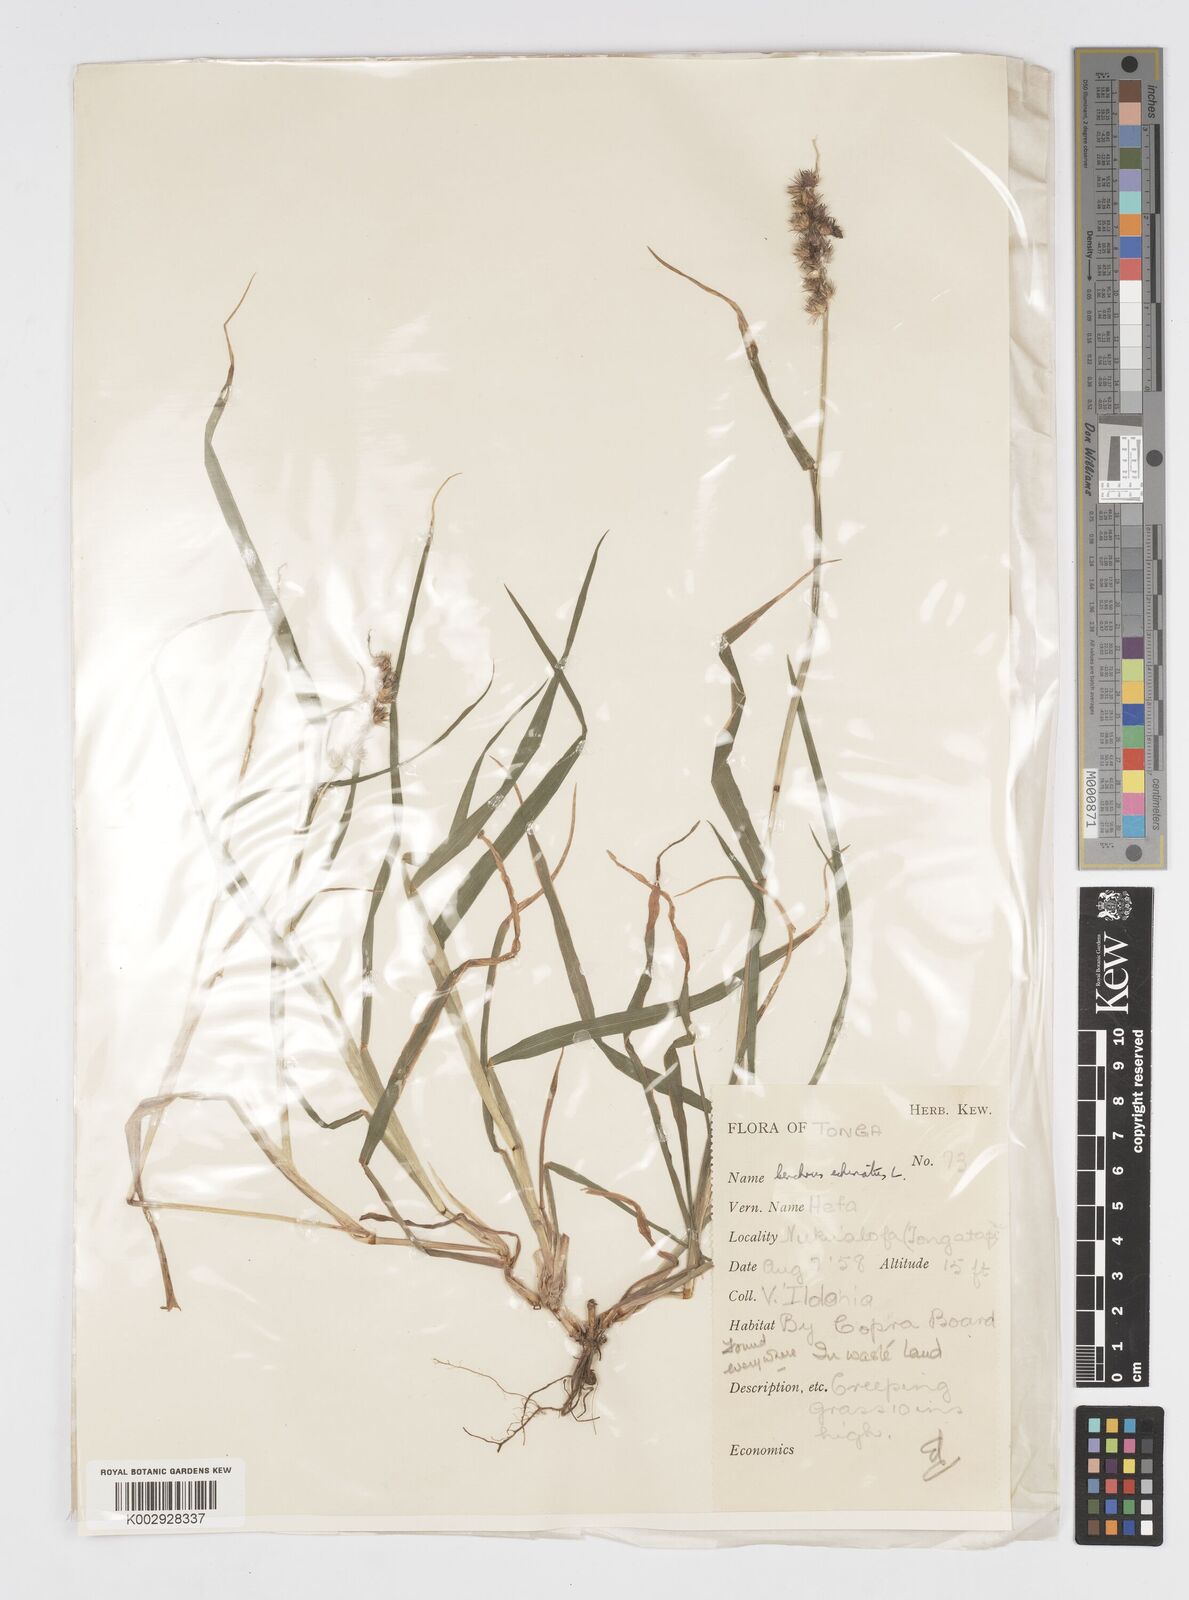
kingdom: Plantae
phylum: Tracheophyta
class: Liliopsida
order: Poales
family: Poaceae
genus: Cenchrus
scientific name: Cenchrus echinatus
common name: Southern sandbur
